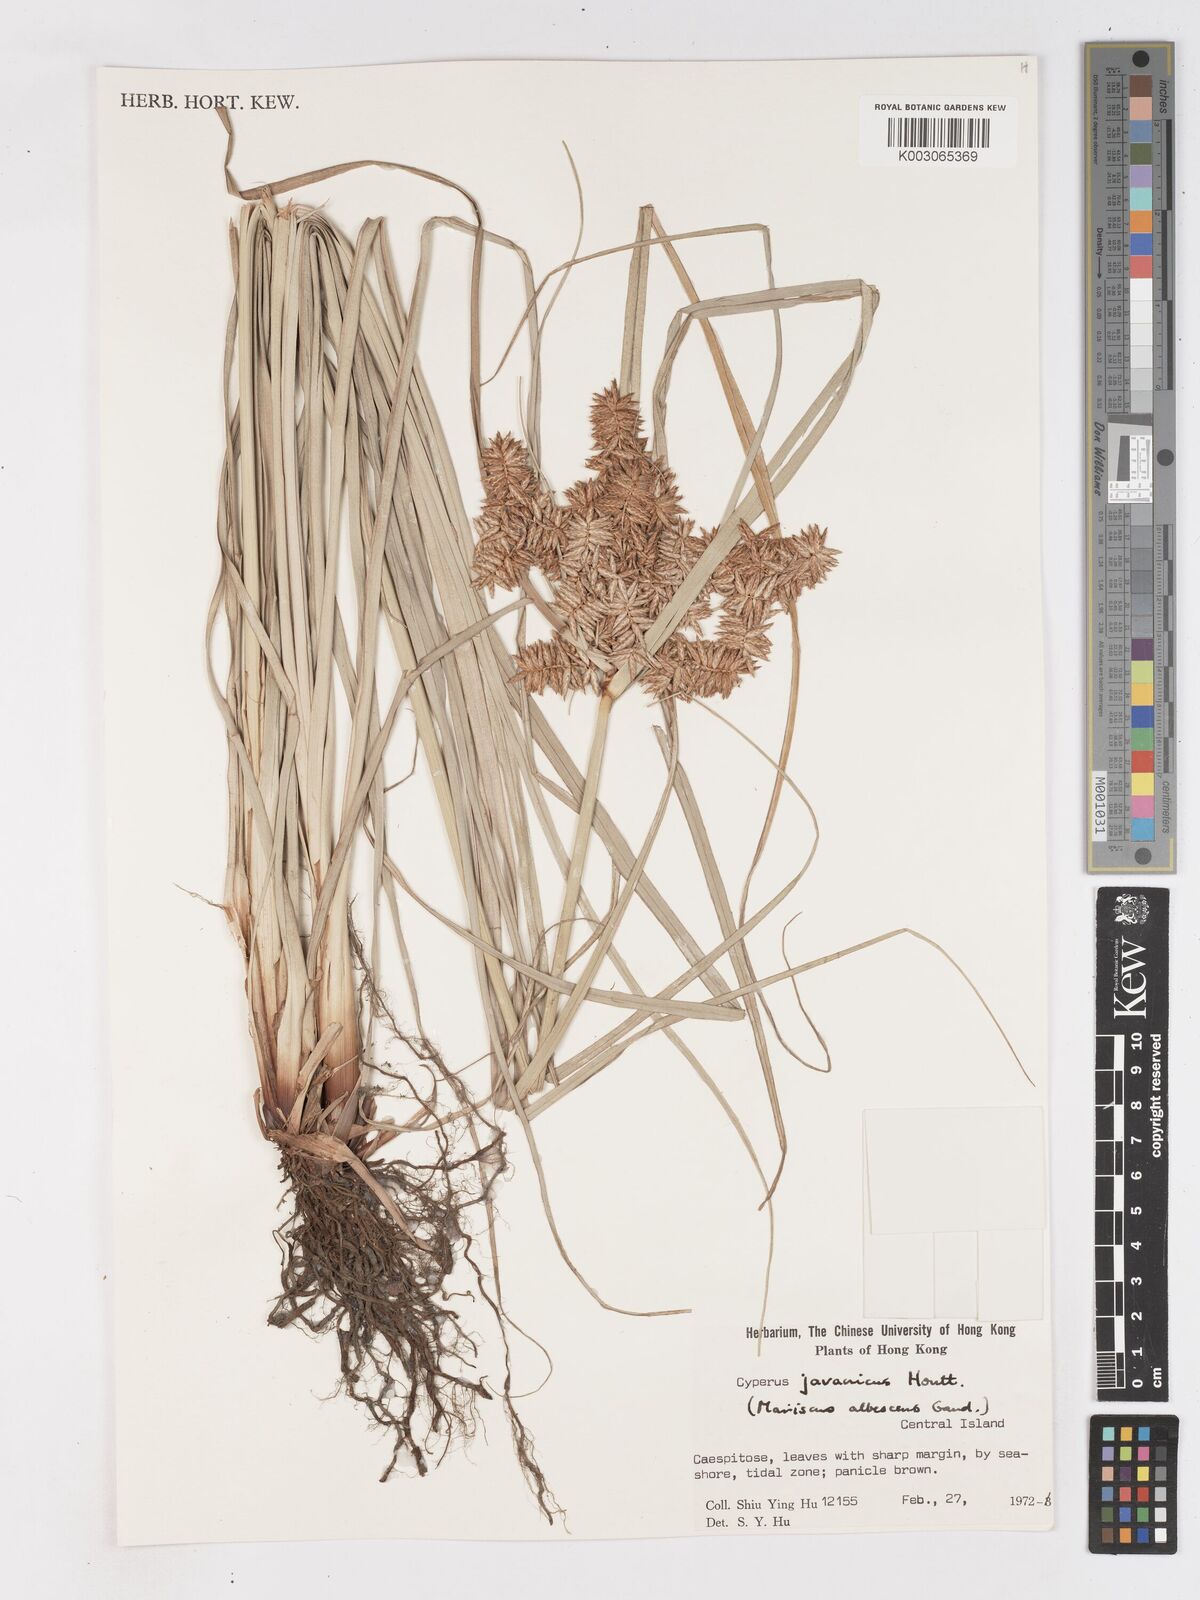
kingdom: Plantae
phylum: Tracheophyta
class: Liliopsida
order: Poales
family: Cyperaceae
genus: Cyperus
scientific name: Cyperus javanicus
